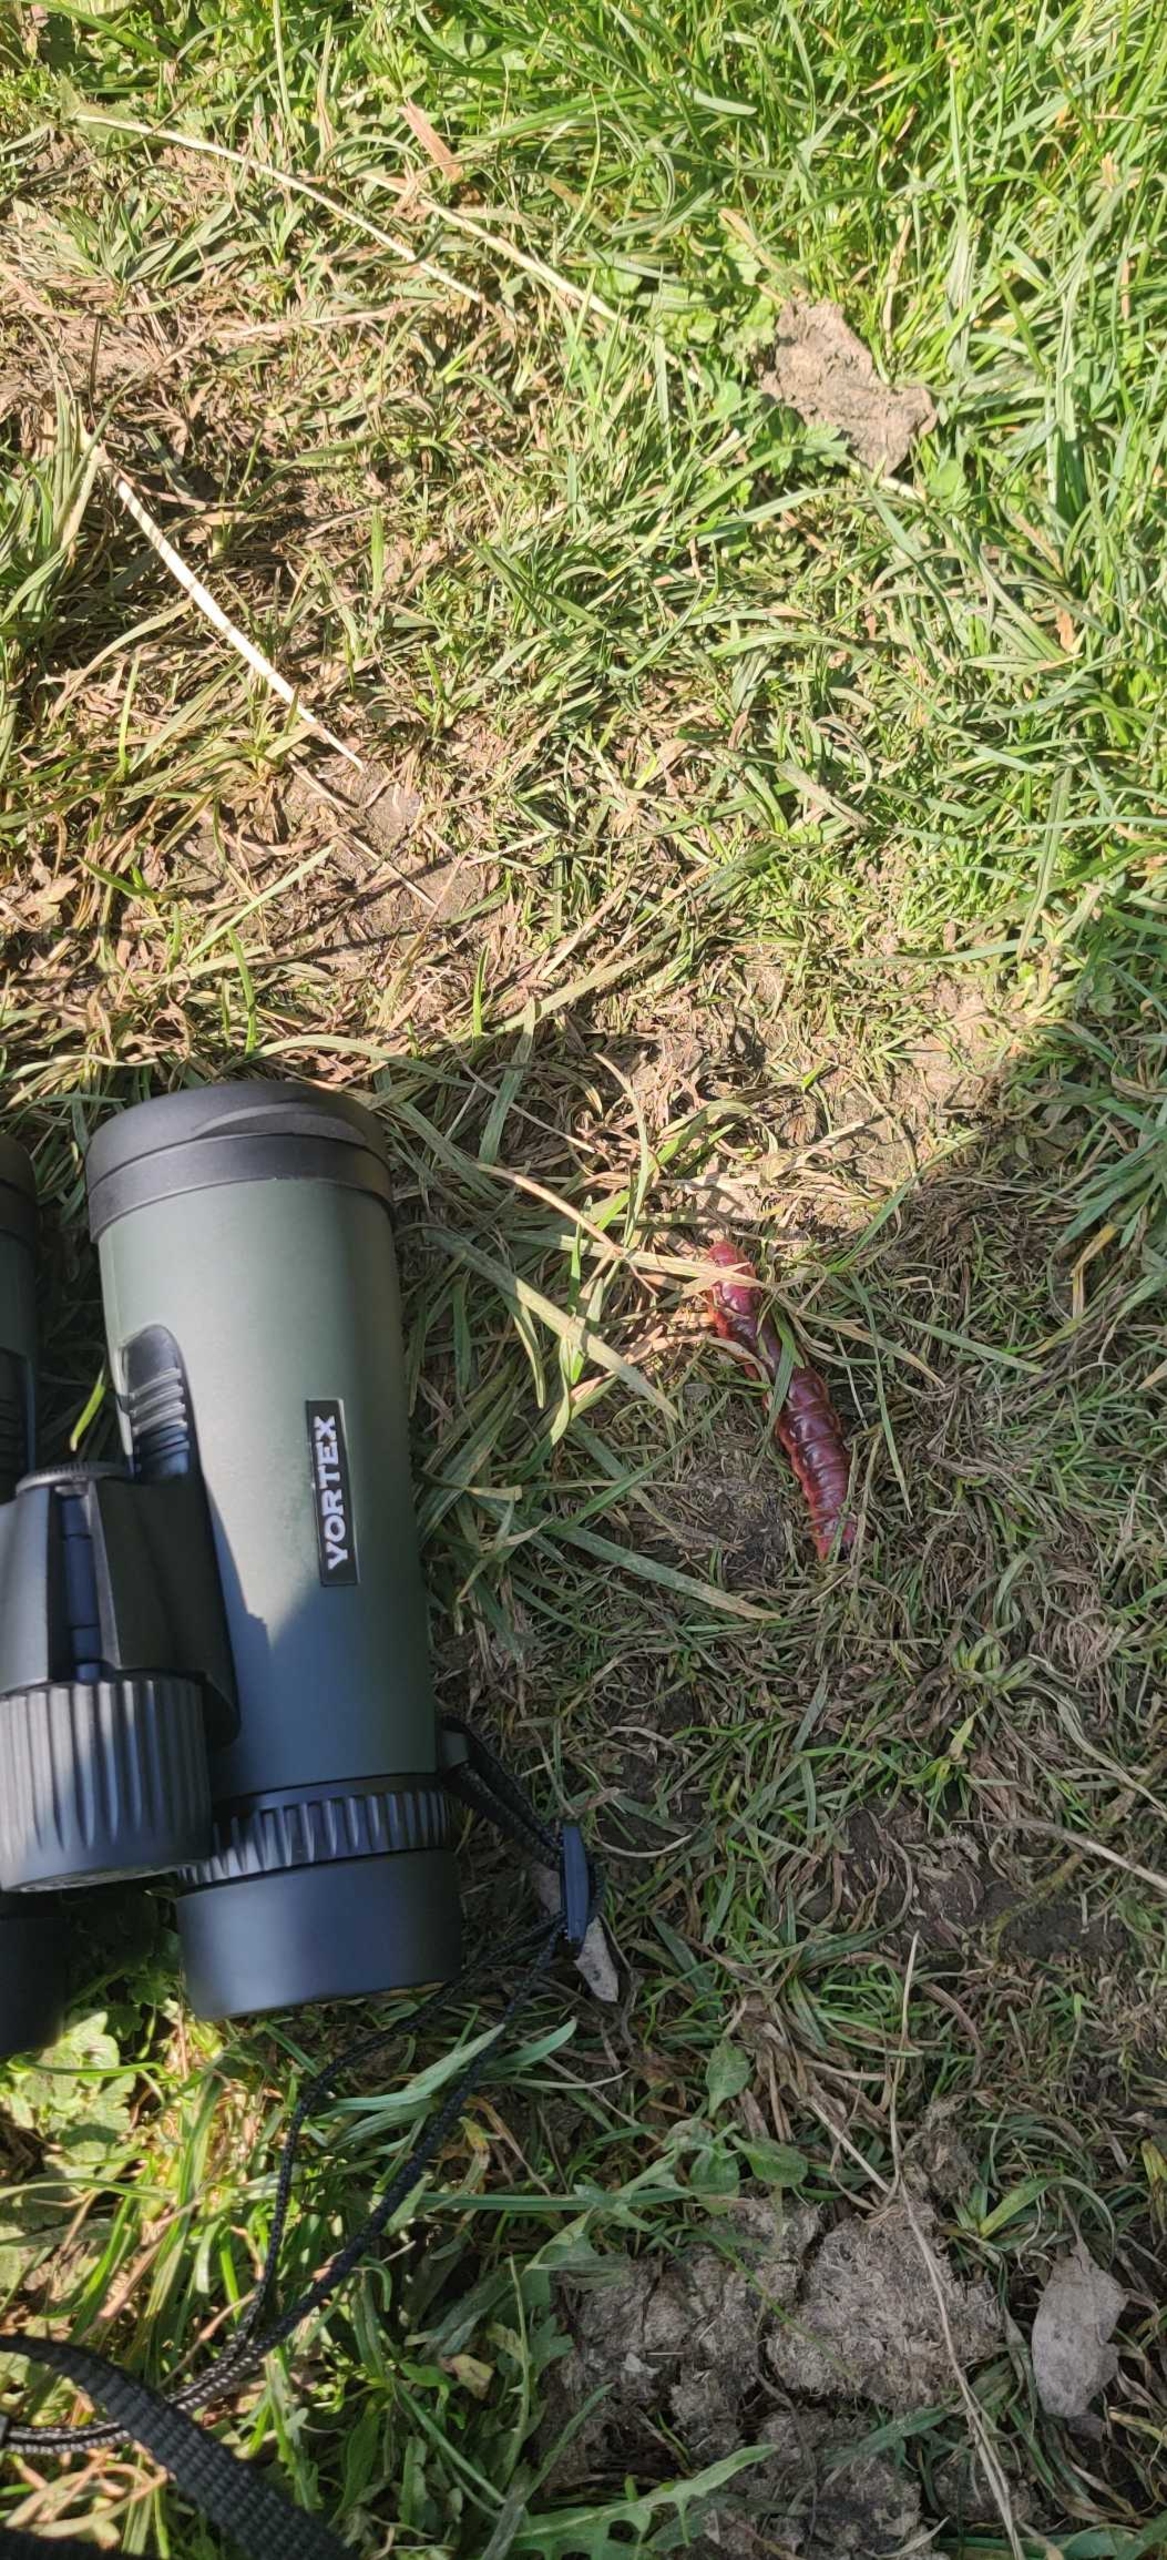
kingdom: Animalia
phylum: Arthropoda
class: Insecta
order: Lepidoptera
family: Cossidae
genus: Cossus
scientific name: Cossus cossus
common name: Pileborer
